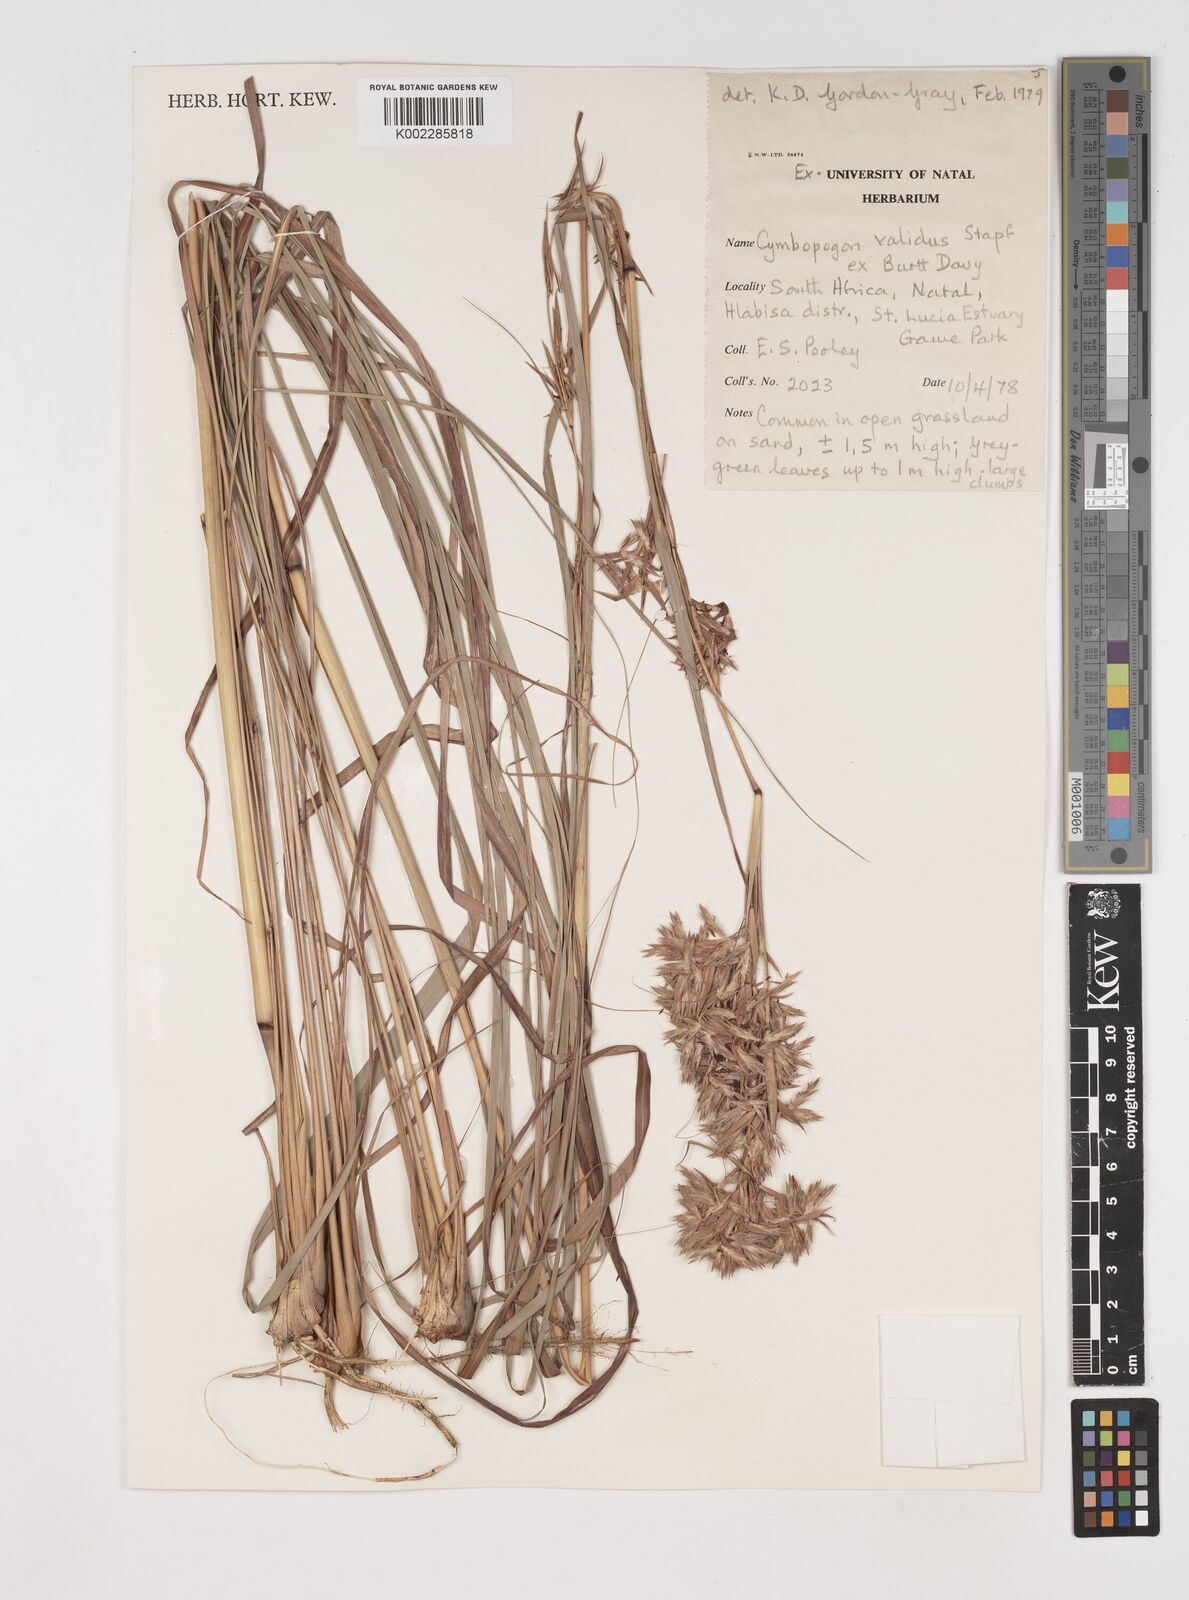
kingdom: Plantae
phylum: Tracheophyta
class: Liliopsida
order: Poales
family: Poaceae
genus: Cymbopogon
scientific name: Cymbopogon nardus
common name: Giant turpentine grass
